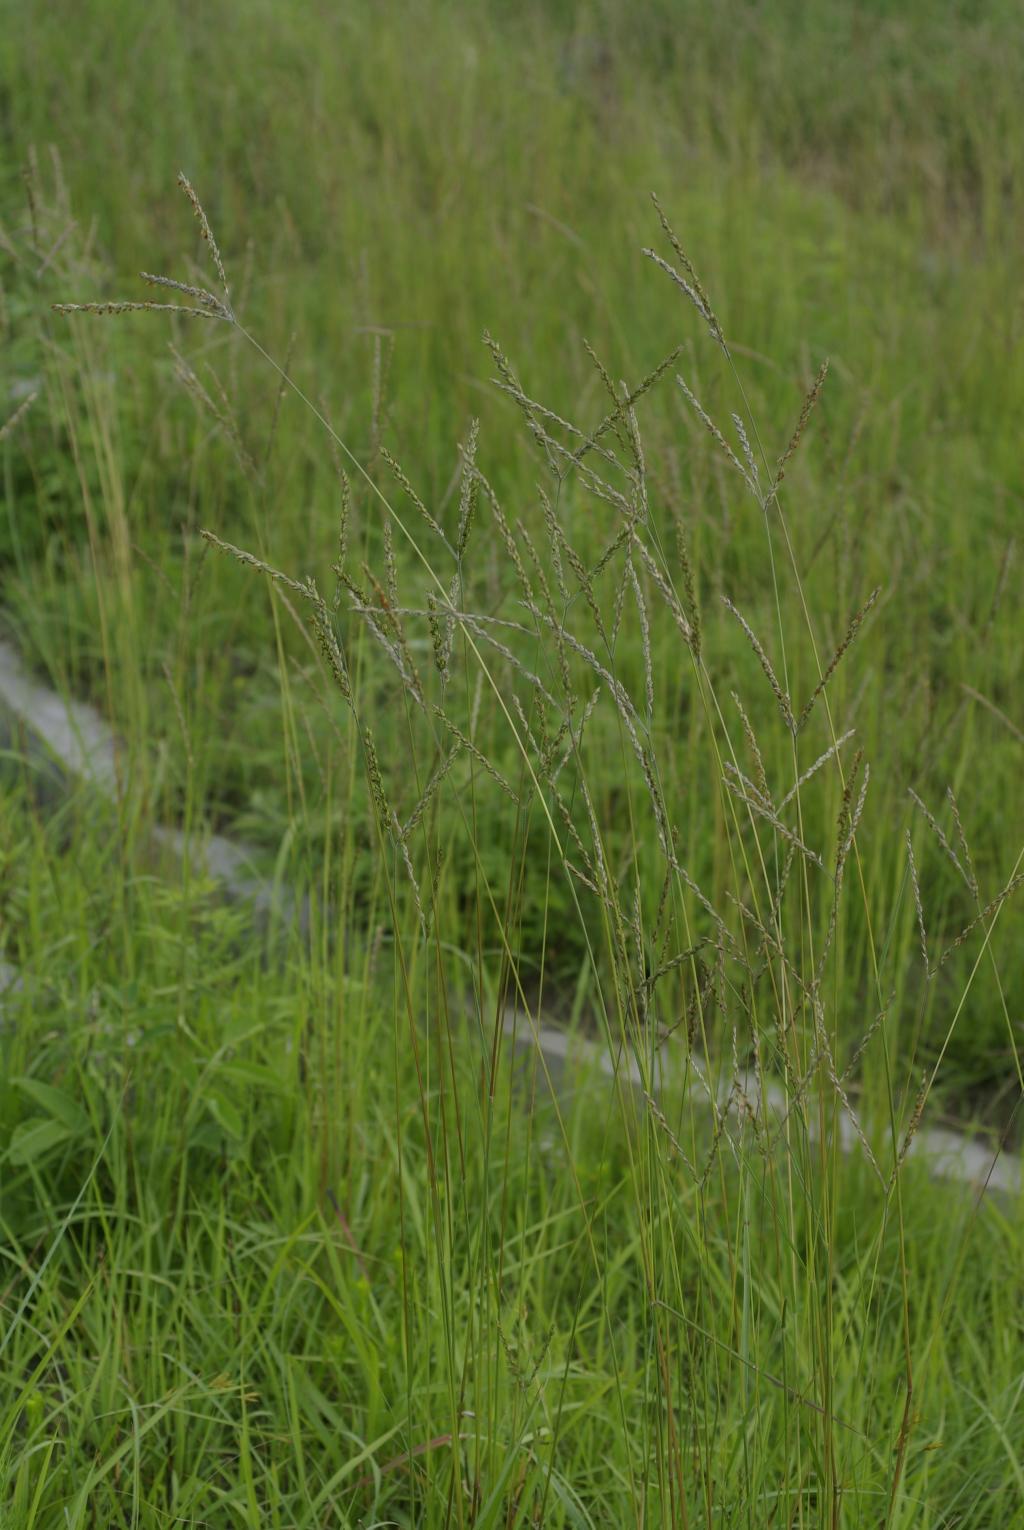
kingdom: Plantae
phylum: Tracheophyta
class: Liliopsida
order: Poales
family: Poaceae
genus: Alloteropsis
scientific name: Alloteropsis semialata
